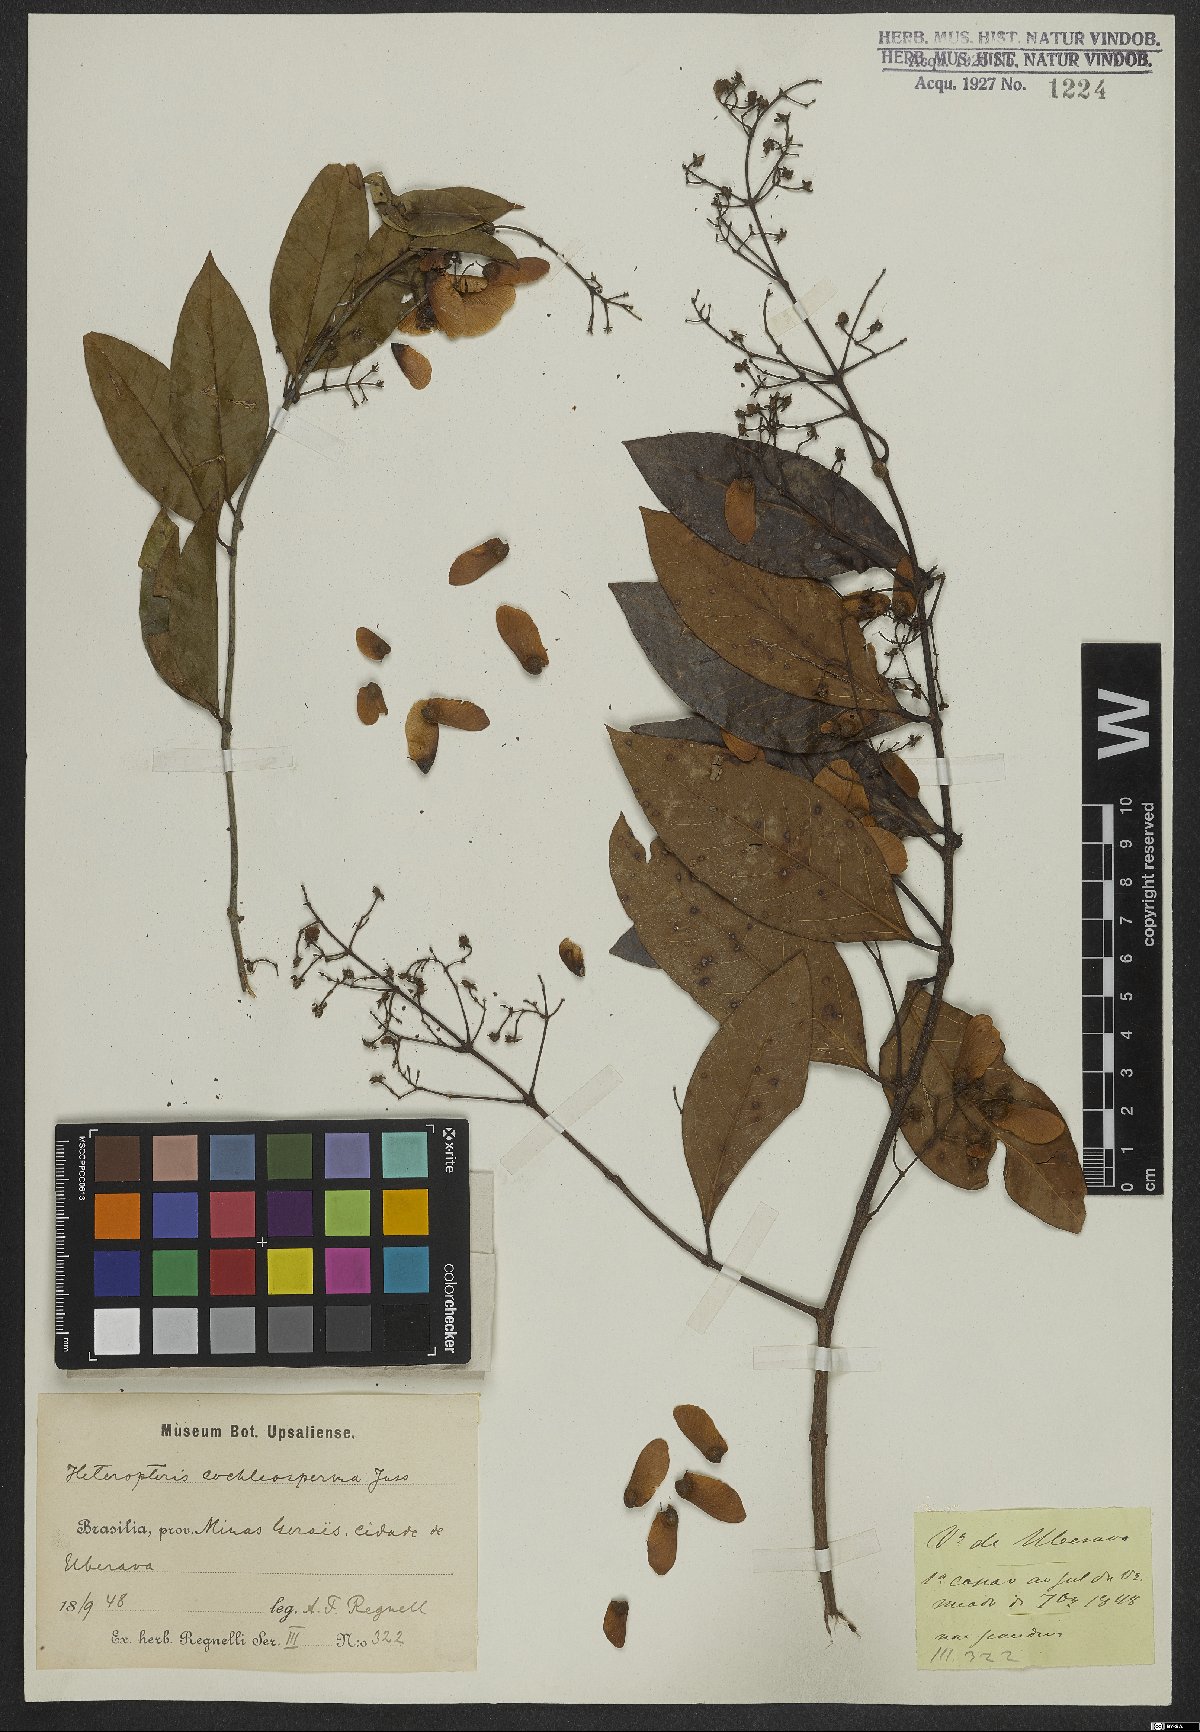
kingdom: Plantae
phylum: Tracheophyta
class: Magnoliopsida
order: Malpighiales
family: Malpighiaceae
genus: Heteropterys
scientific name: Heteropterys cochleosperma
